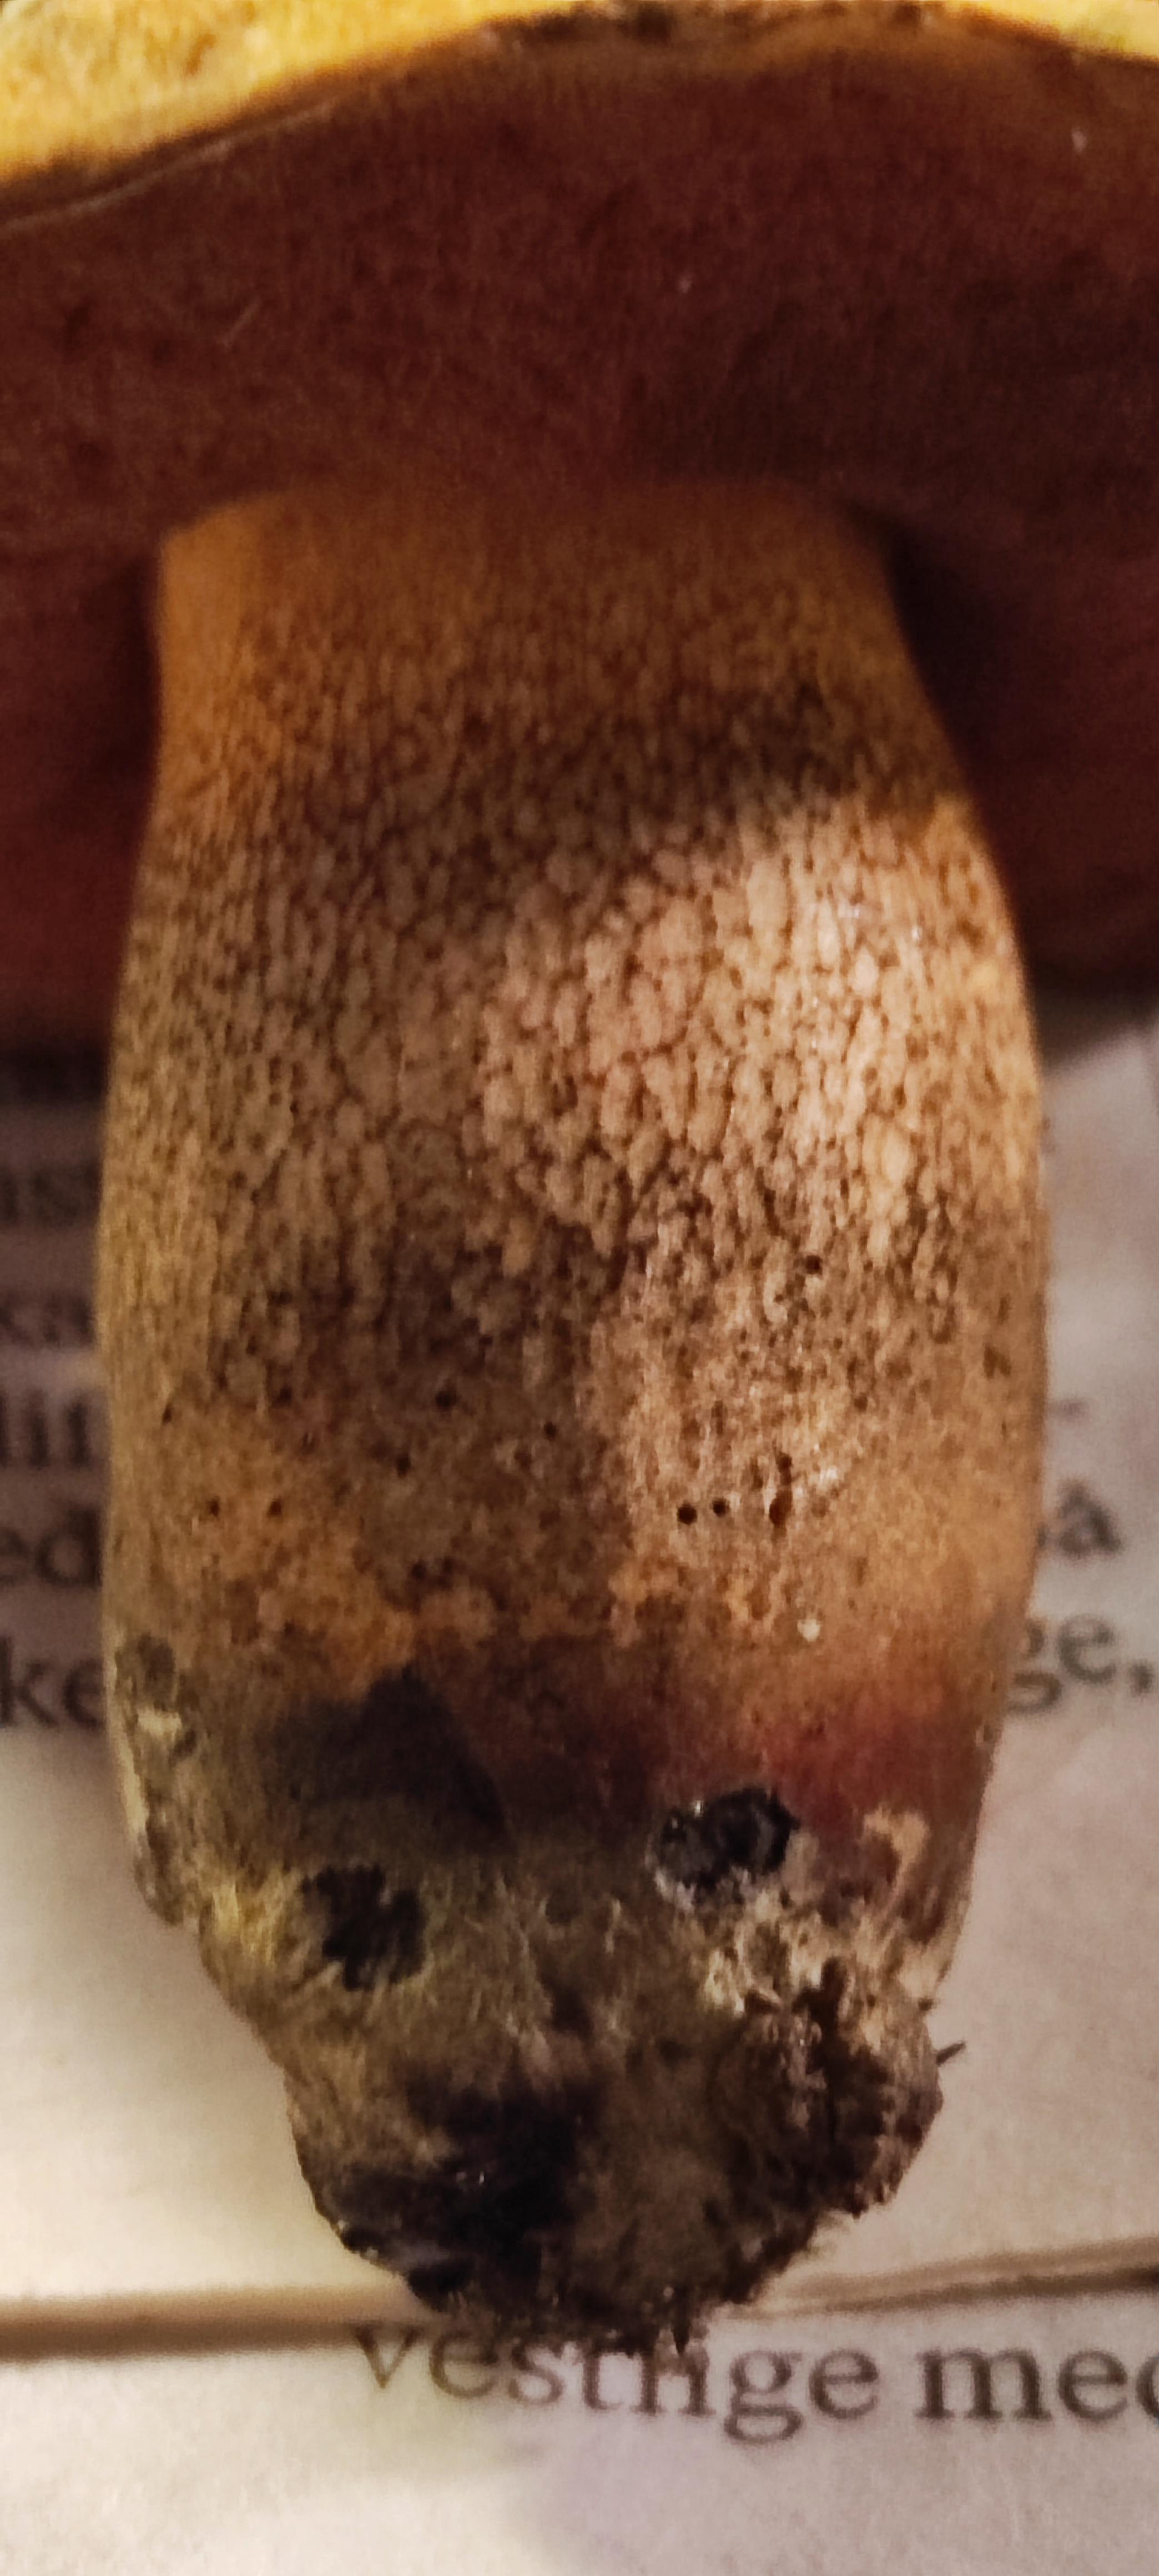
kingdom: Fungi
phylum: Basidiomycota
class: Agaricomycetes
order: Boletales
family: Boletaceae
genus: Suillellus
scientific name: Suillellus luridus
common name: netstokket indigorørhat
